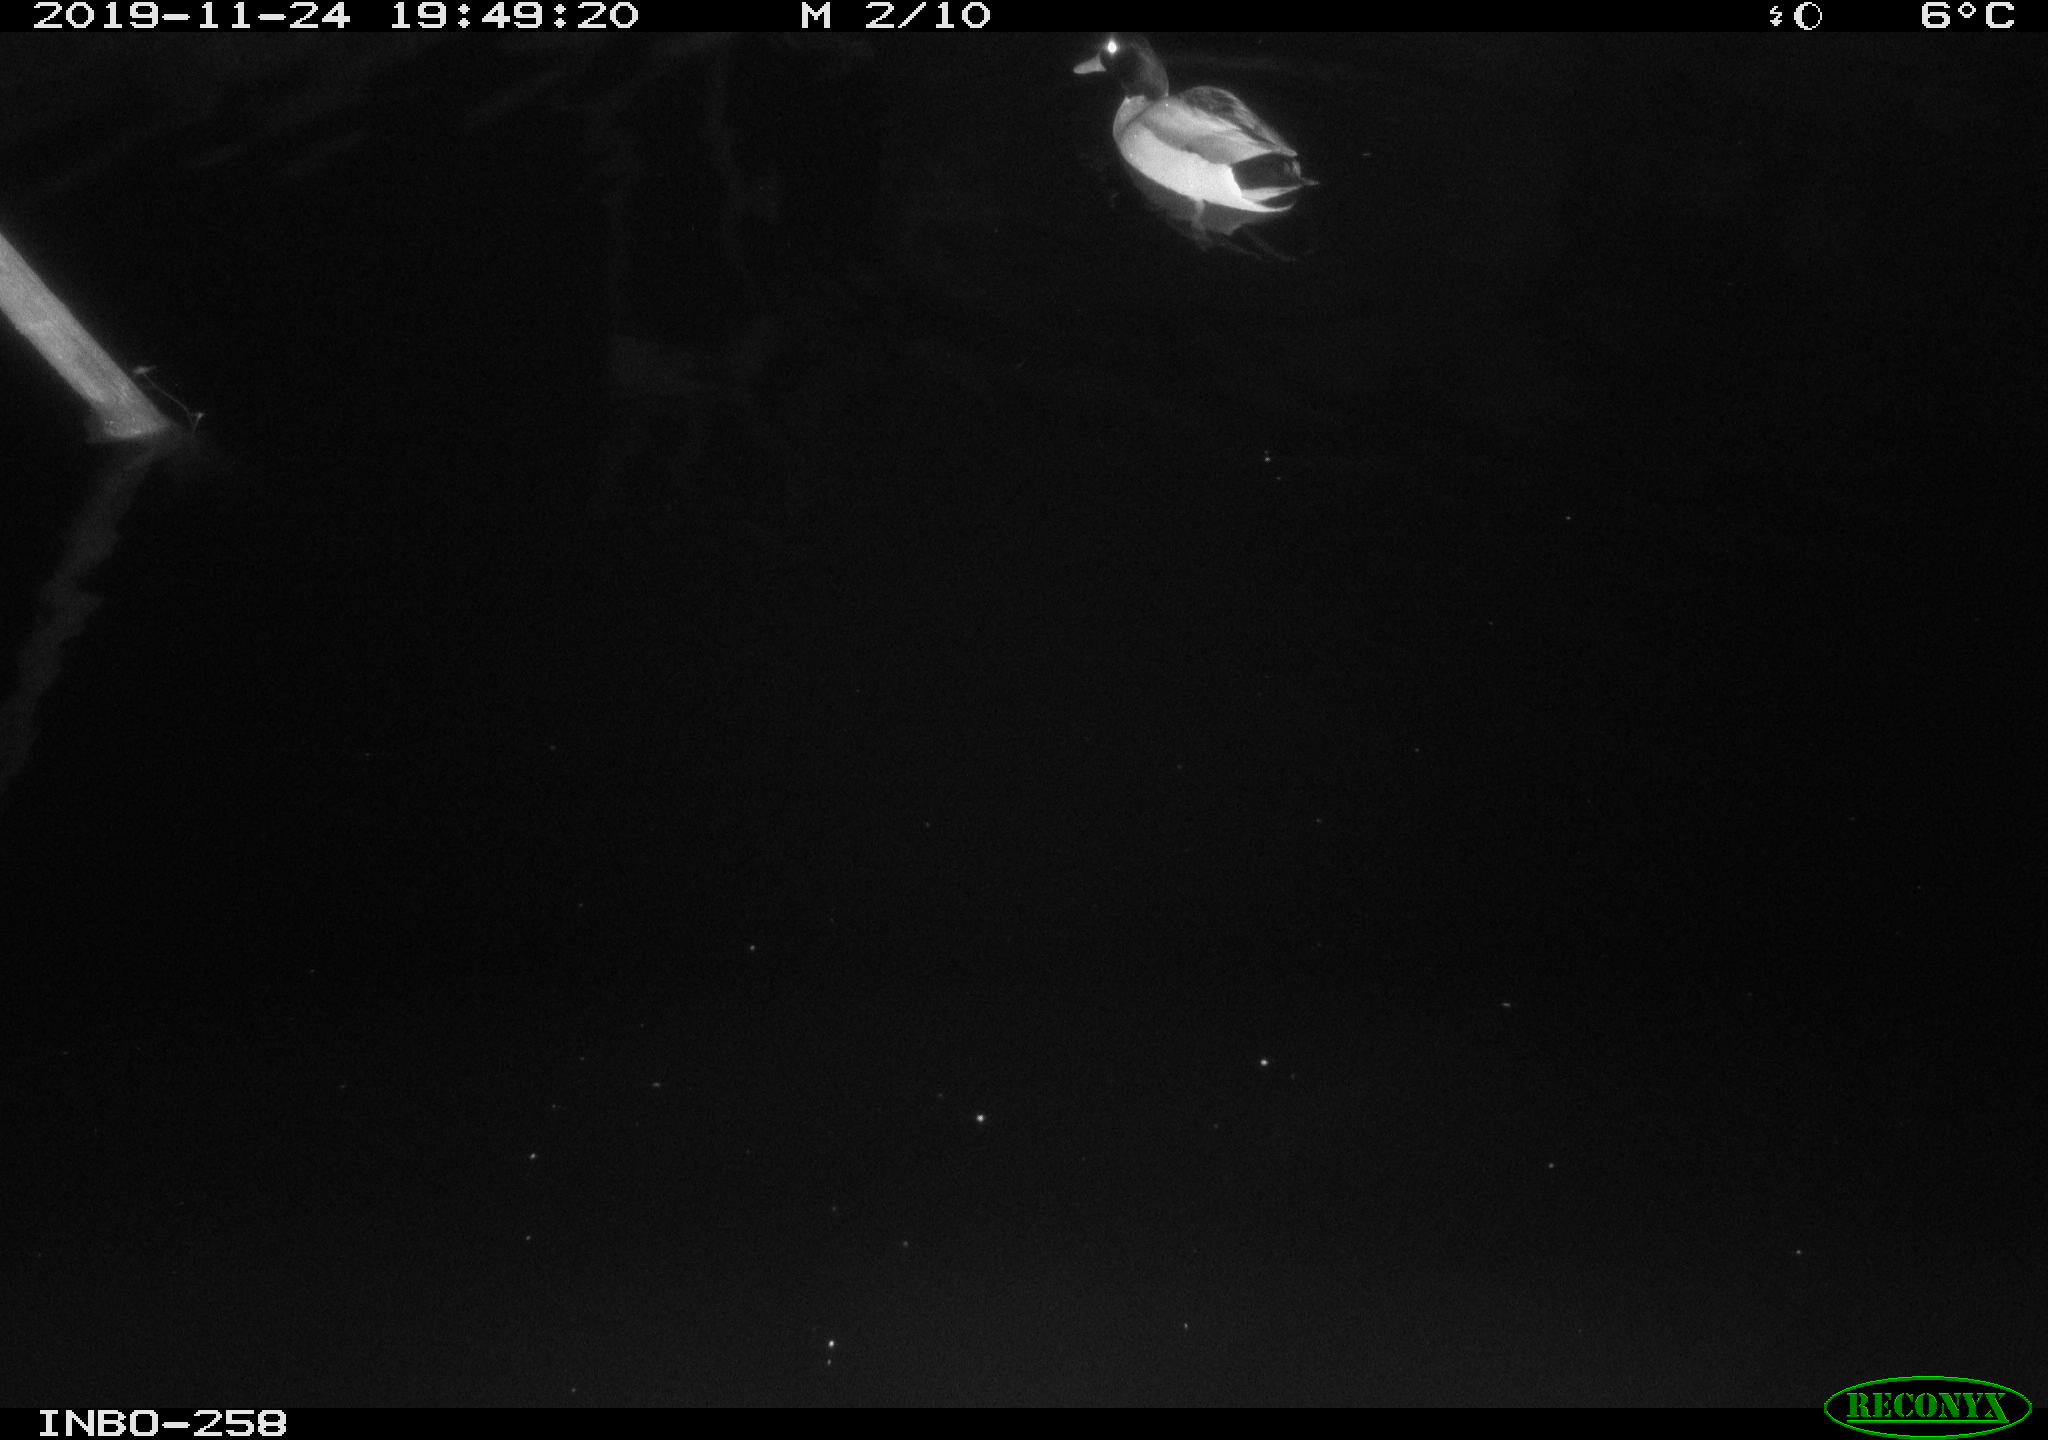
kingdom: Animalia
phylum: Chordata
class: Aves
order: Anseriformes
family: Anatidae
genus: Anas
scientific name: Anas platyrhynchos
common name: Mallard
